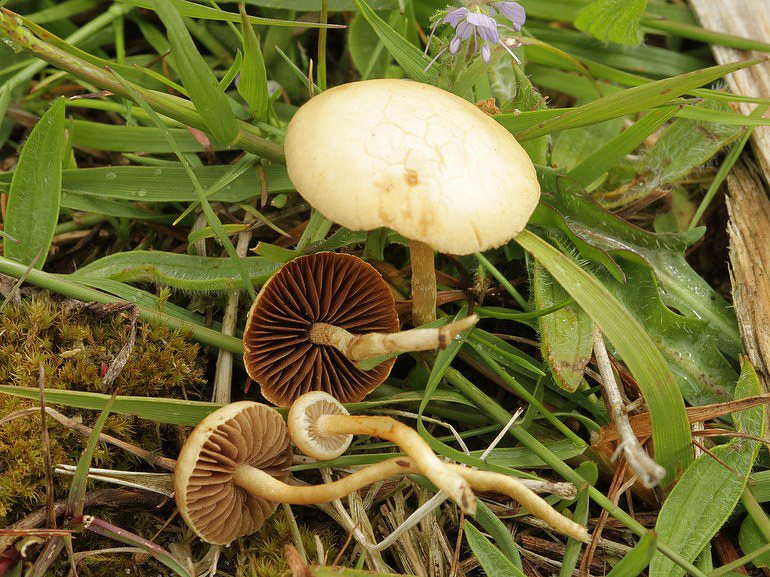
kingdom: Fungi
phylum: Basidiomycota
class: Agaricomycetes
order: Agaricales
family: Strophariaceae
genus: Agrocybe
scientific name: Agrocybe pediades
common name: almindelig agerhat
